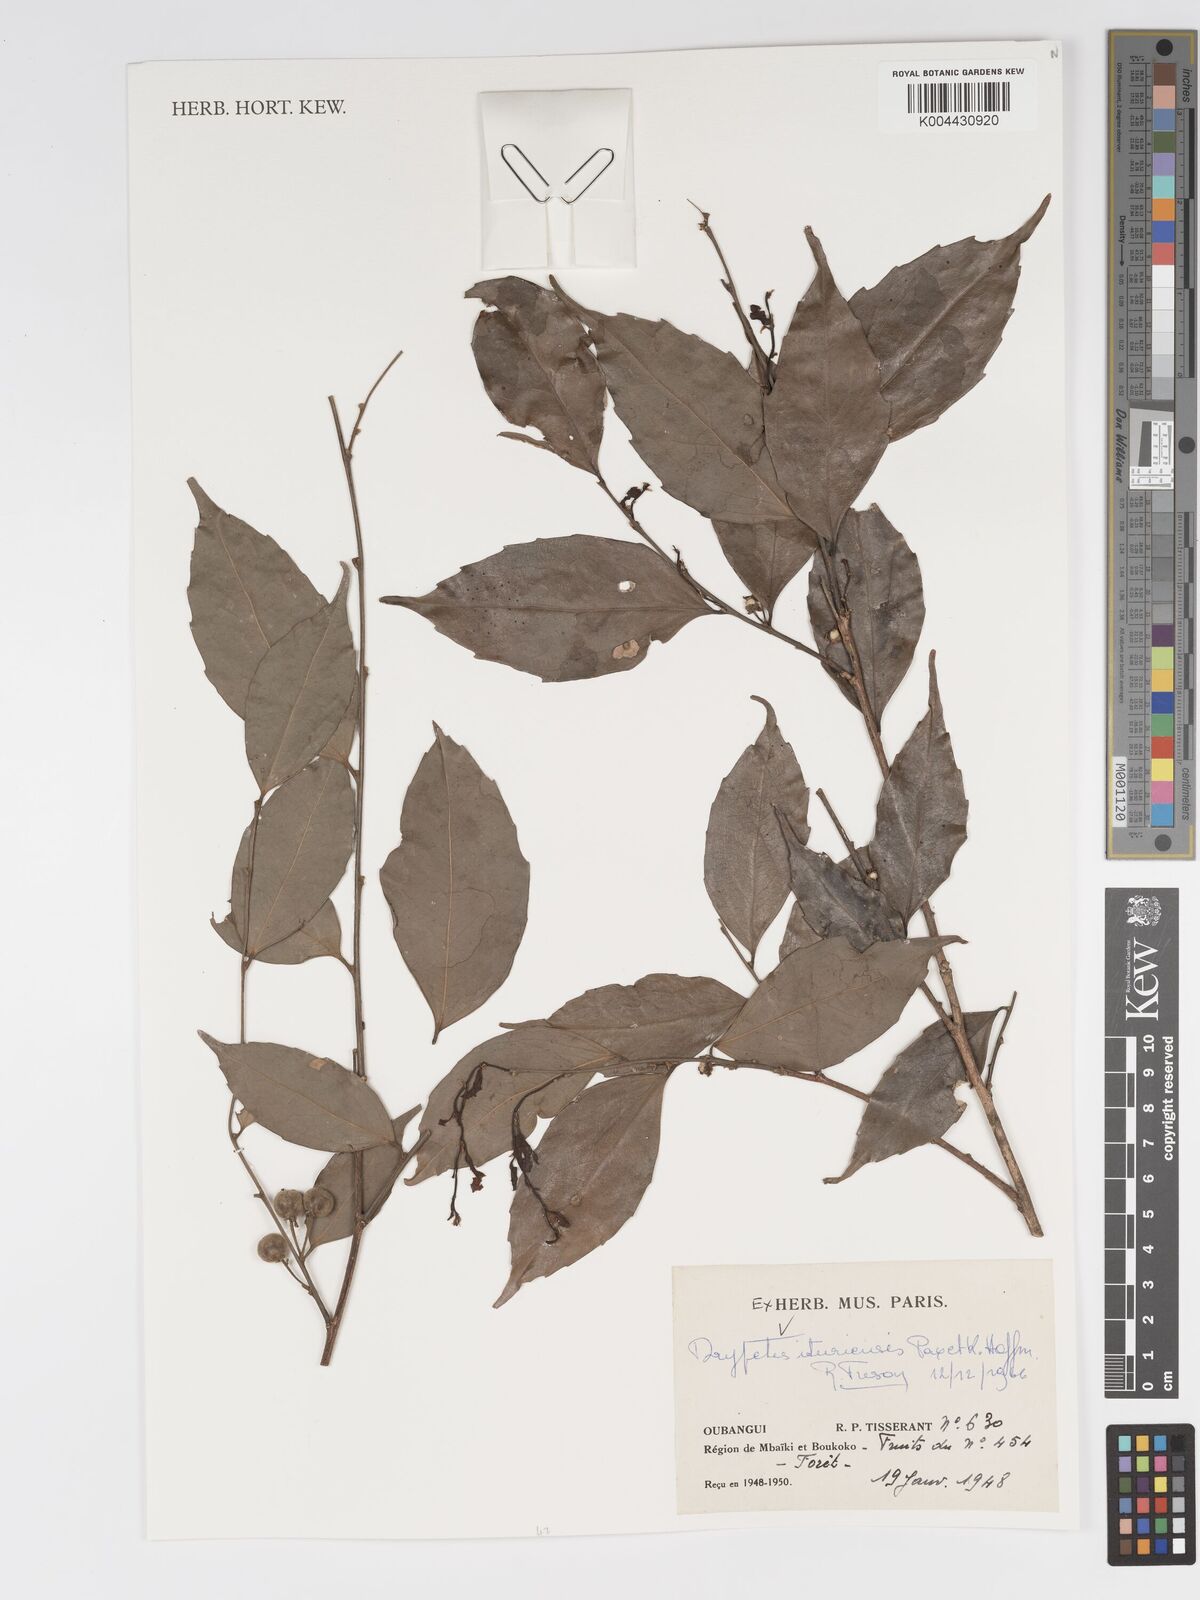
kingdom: Plantae
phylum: Tracheophyta
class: Magnoliopsida
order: Malpighiales
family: Putranjivaceae
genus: Drypetes
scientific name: Drypetes ituriensis
